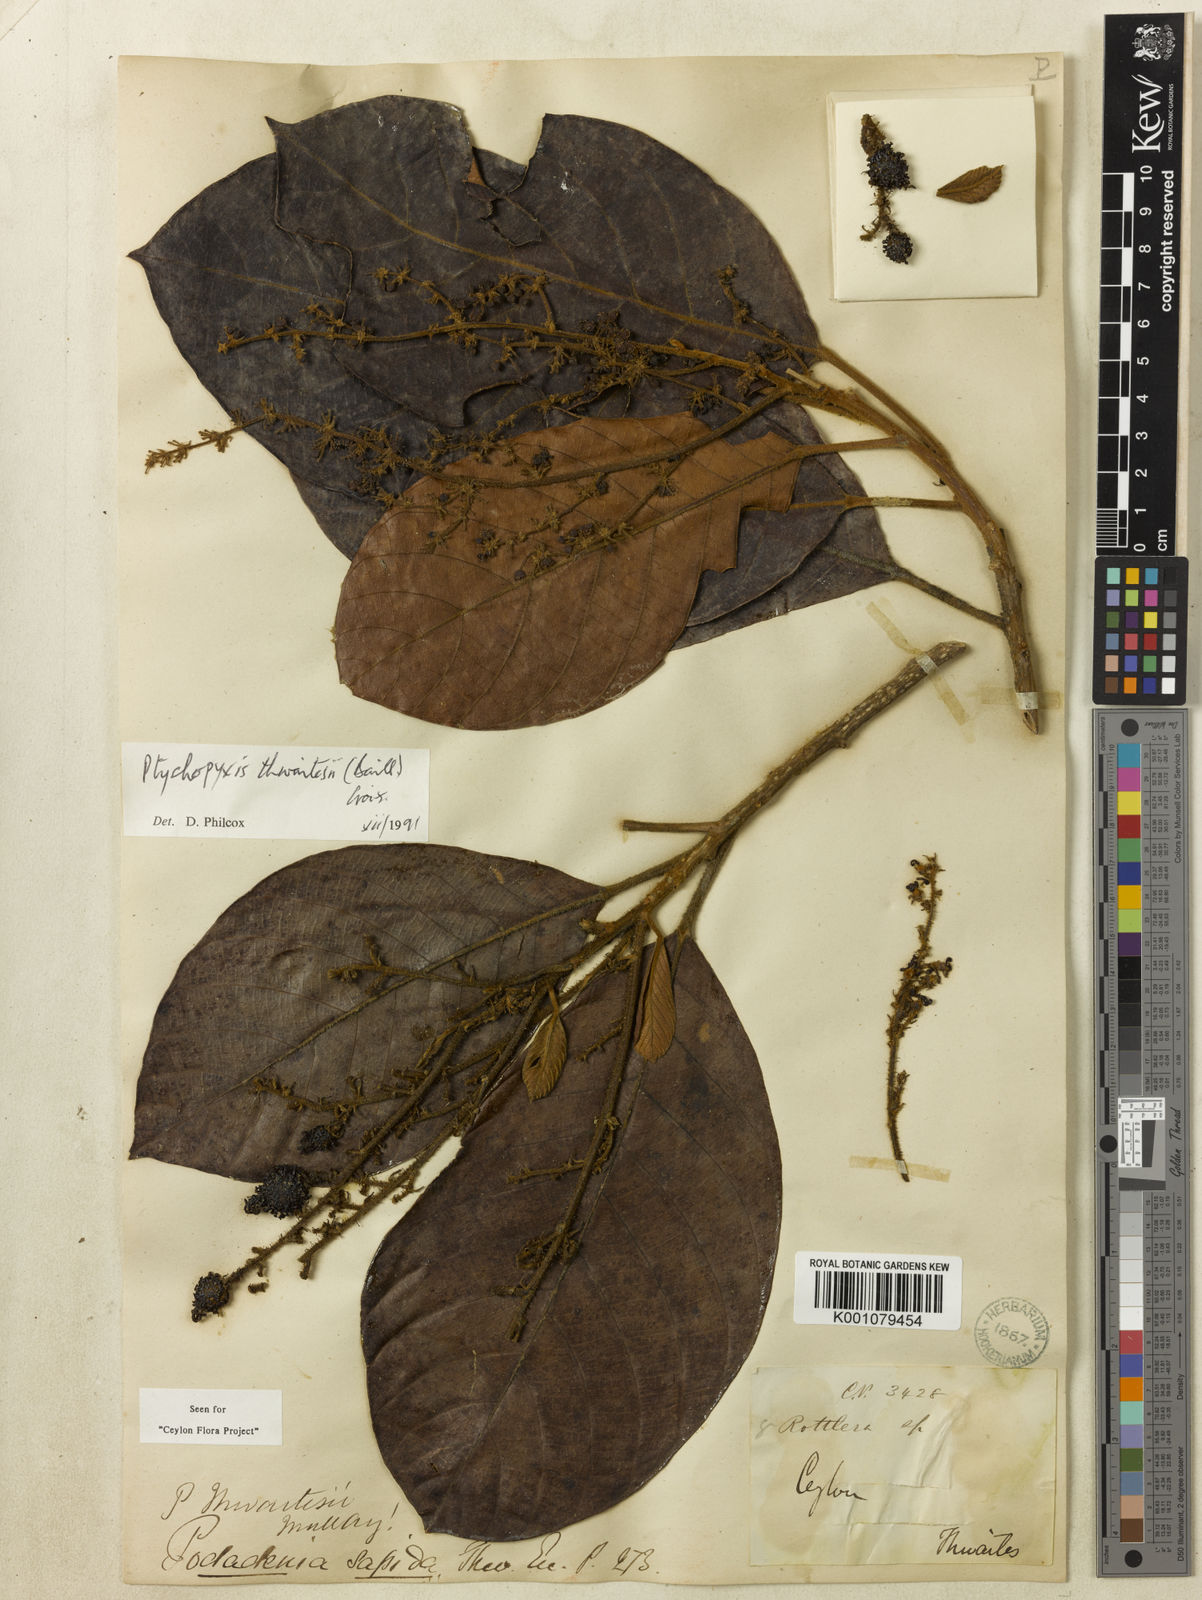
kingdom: Plantae
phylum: Tracheophyta
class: Magnoliopsida
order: Malpighiales
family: Euphorbiaceae
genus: Podadenia
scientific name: Podadenia sapida
